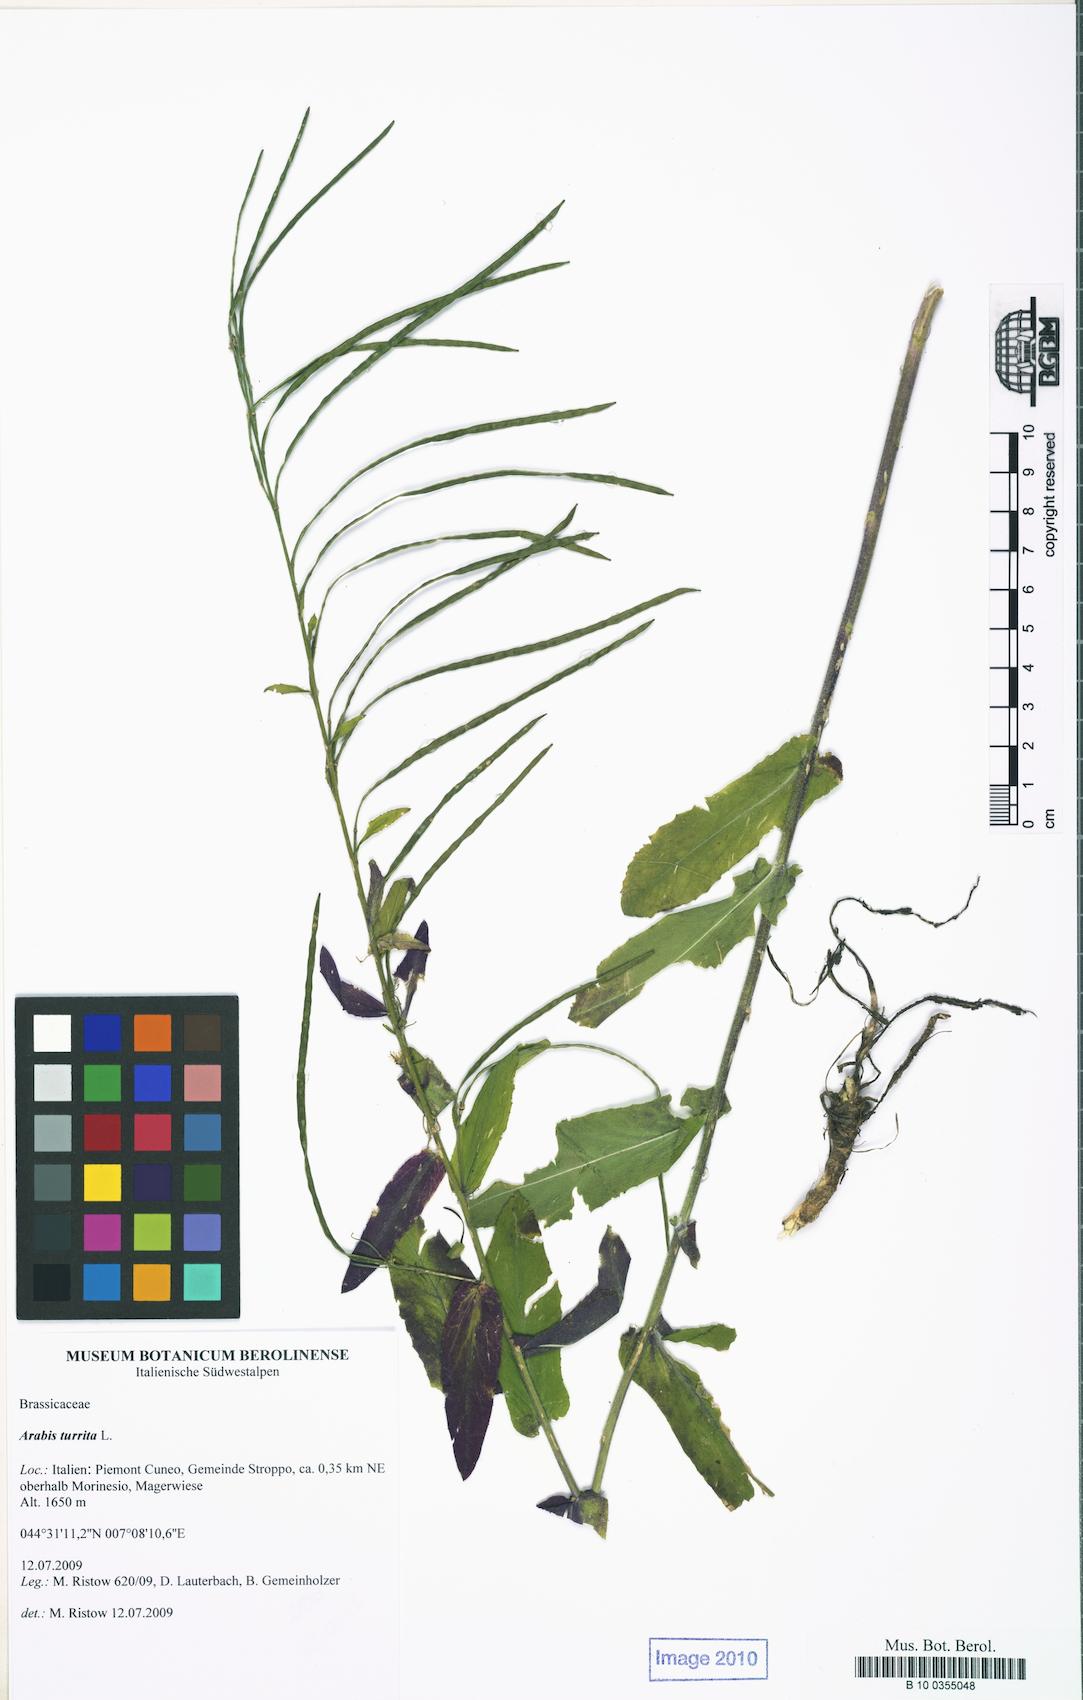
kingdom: Plantae
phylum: Tracheophyta
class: Magnoliopsida
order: Brassicales
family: Brassicaceae
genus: Pseudoturritis
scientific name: Pseudoturritis turrita
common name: Tower cress
